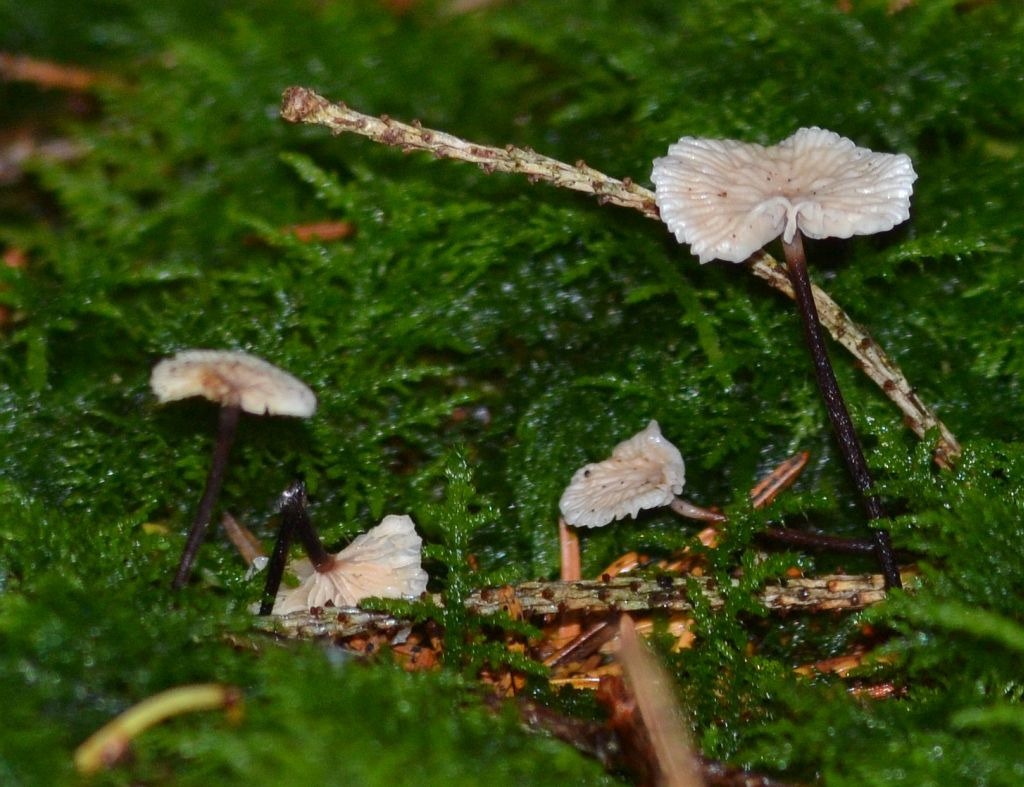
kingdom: Fungi
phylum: Basidiomycota
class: Agaricomycetes
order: Agaricales
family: Omphalotaceae
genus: Paragymnopus
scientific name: Paragymnopus perforans
